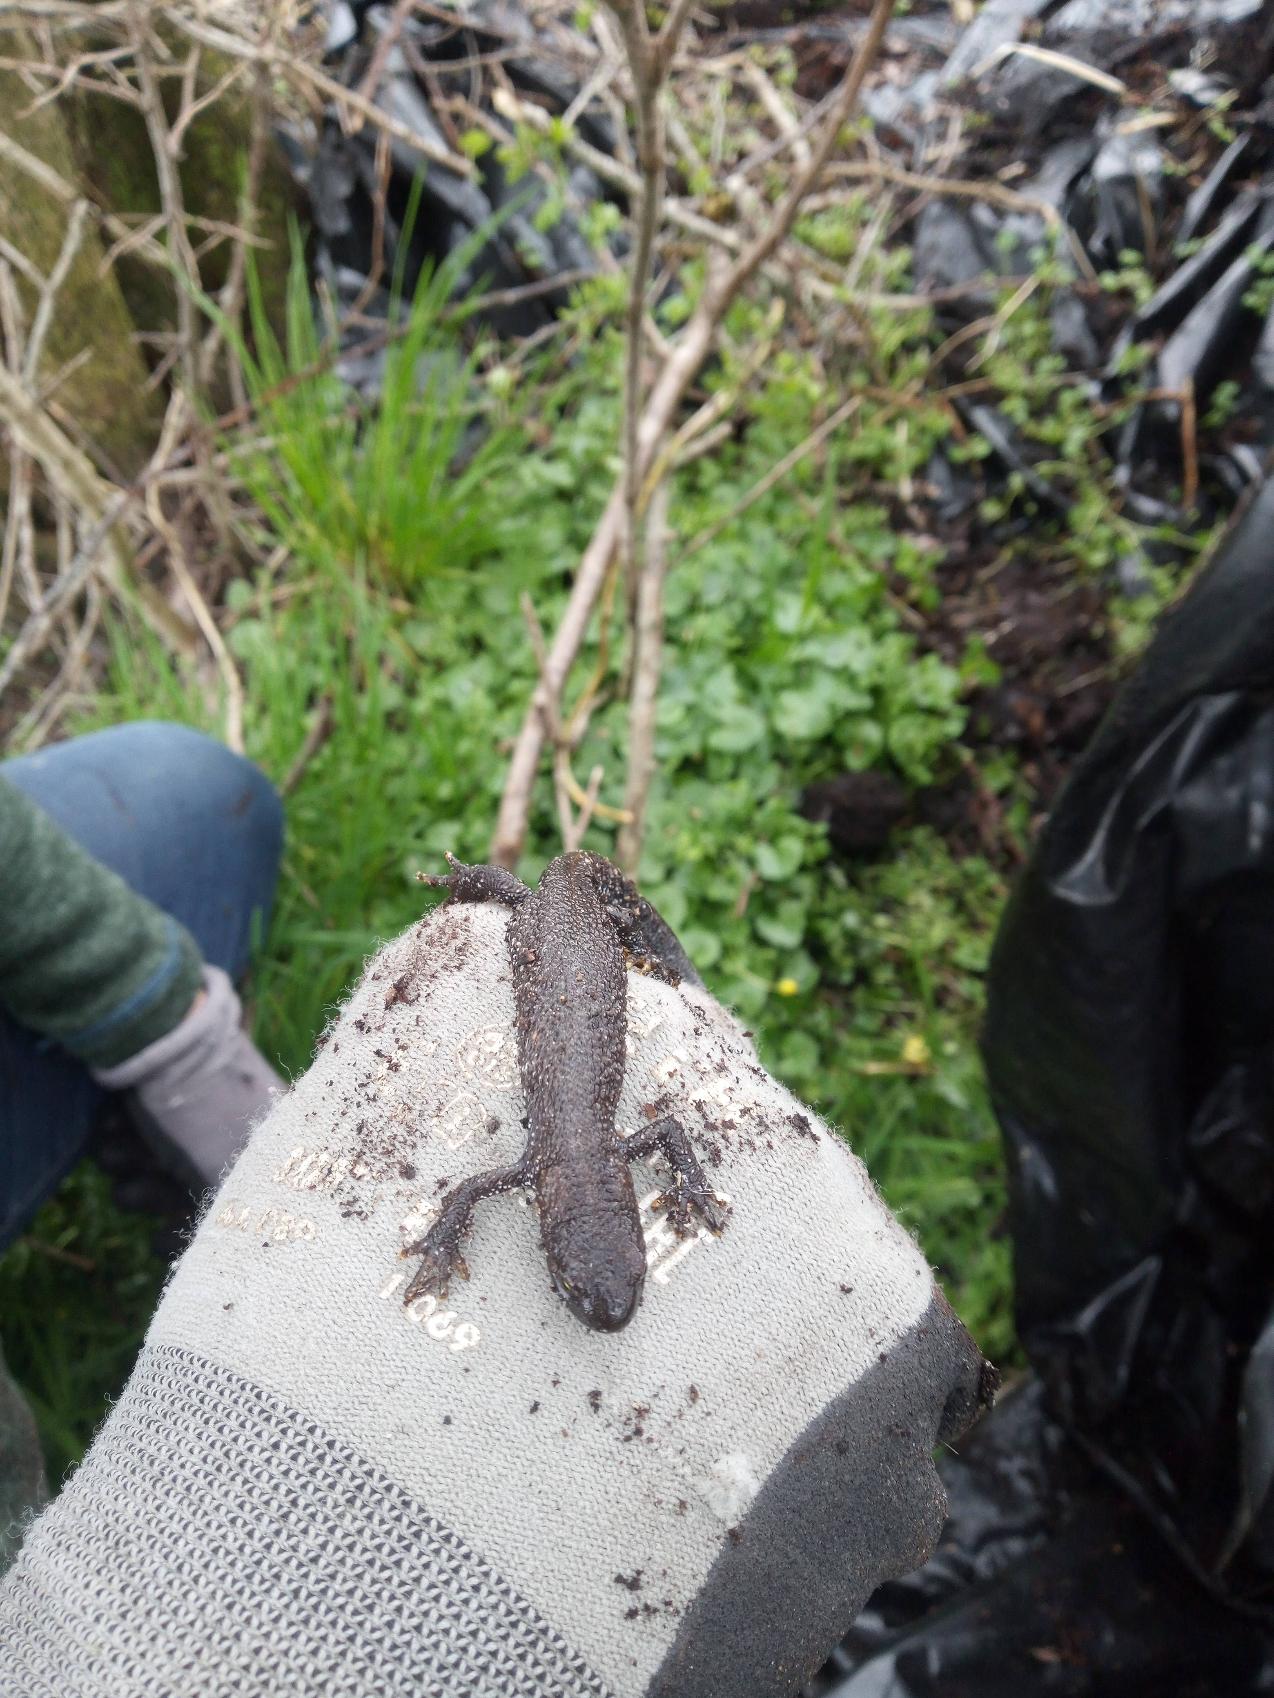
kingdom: Animalia
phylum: Chordata
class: Amphibia
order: Caudata
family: Salamandridae
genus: Triturus
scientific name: Triturus cristatus
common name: Stor vandsalamander
